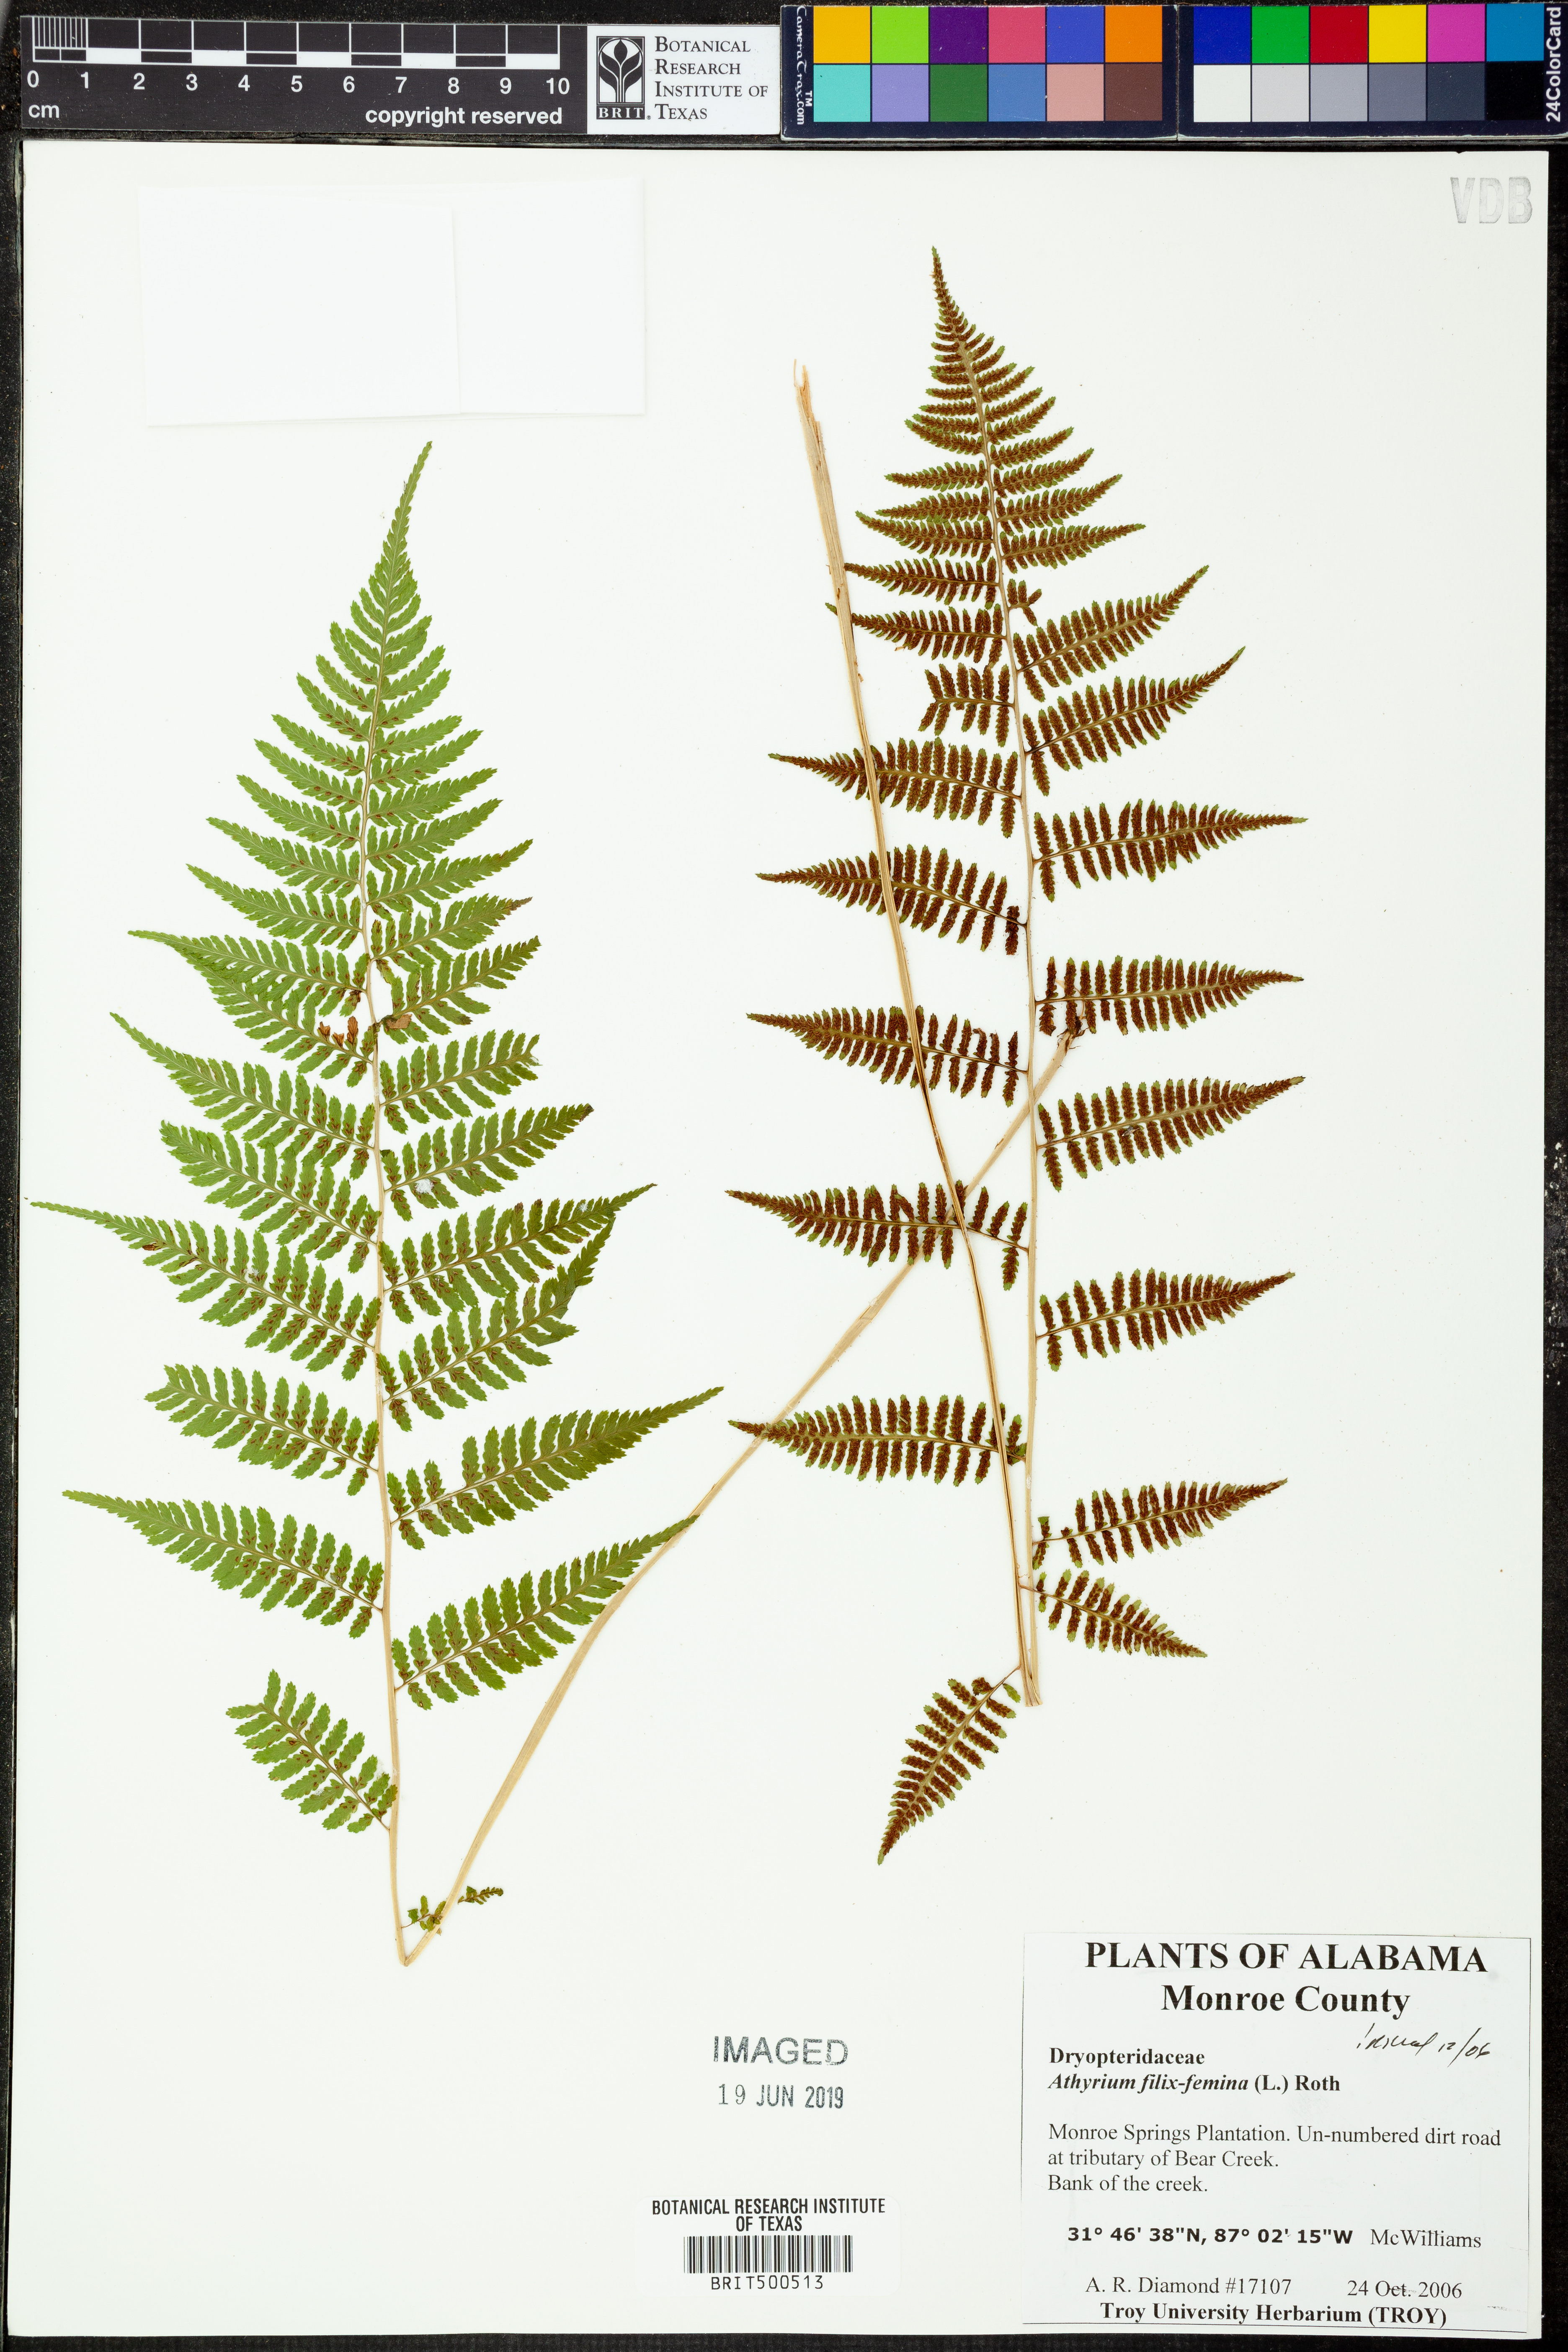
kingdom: Plantae
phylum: Tracheophyta
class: Polypodiopsida
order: Polypodiales
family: Athyriaceae
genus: Athyrium
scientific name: Athyrium filix-femina
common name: Lady fern
